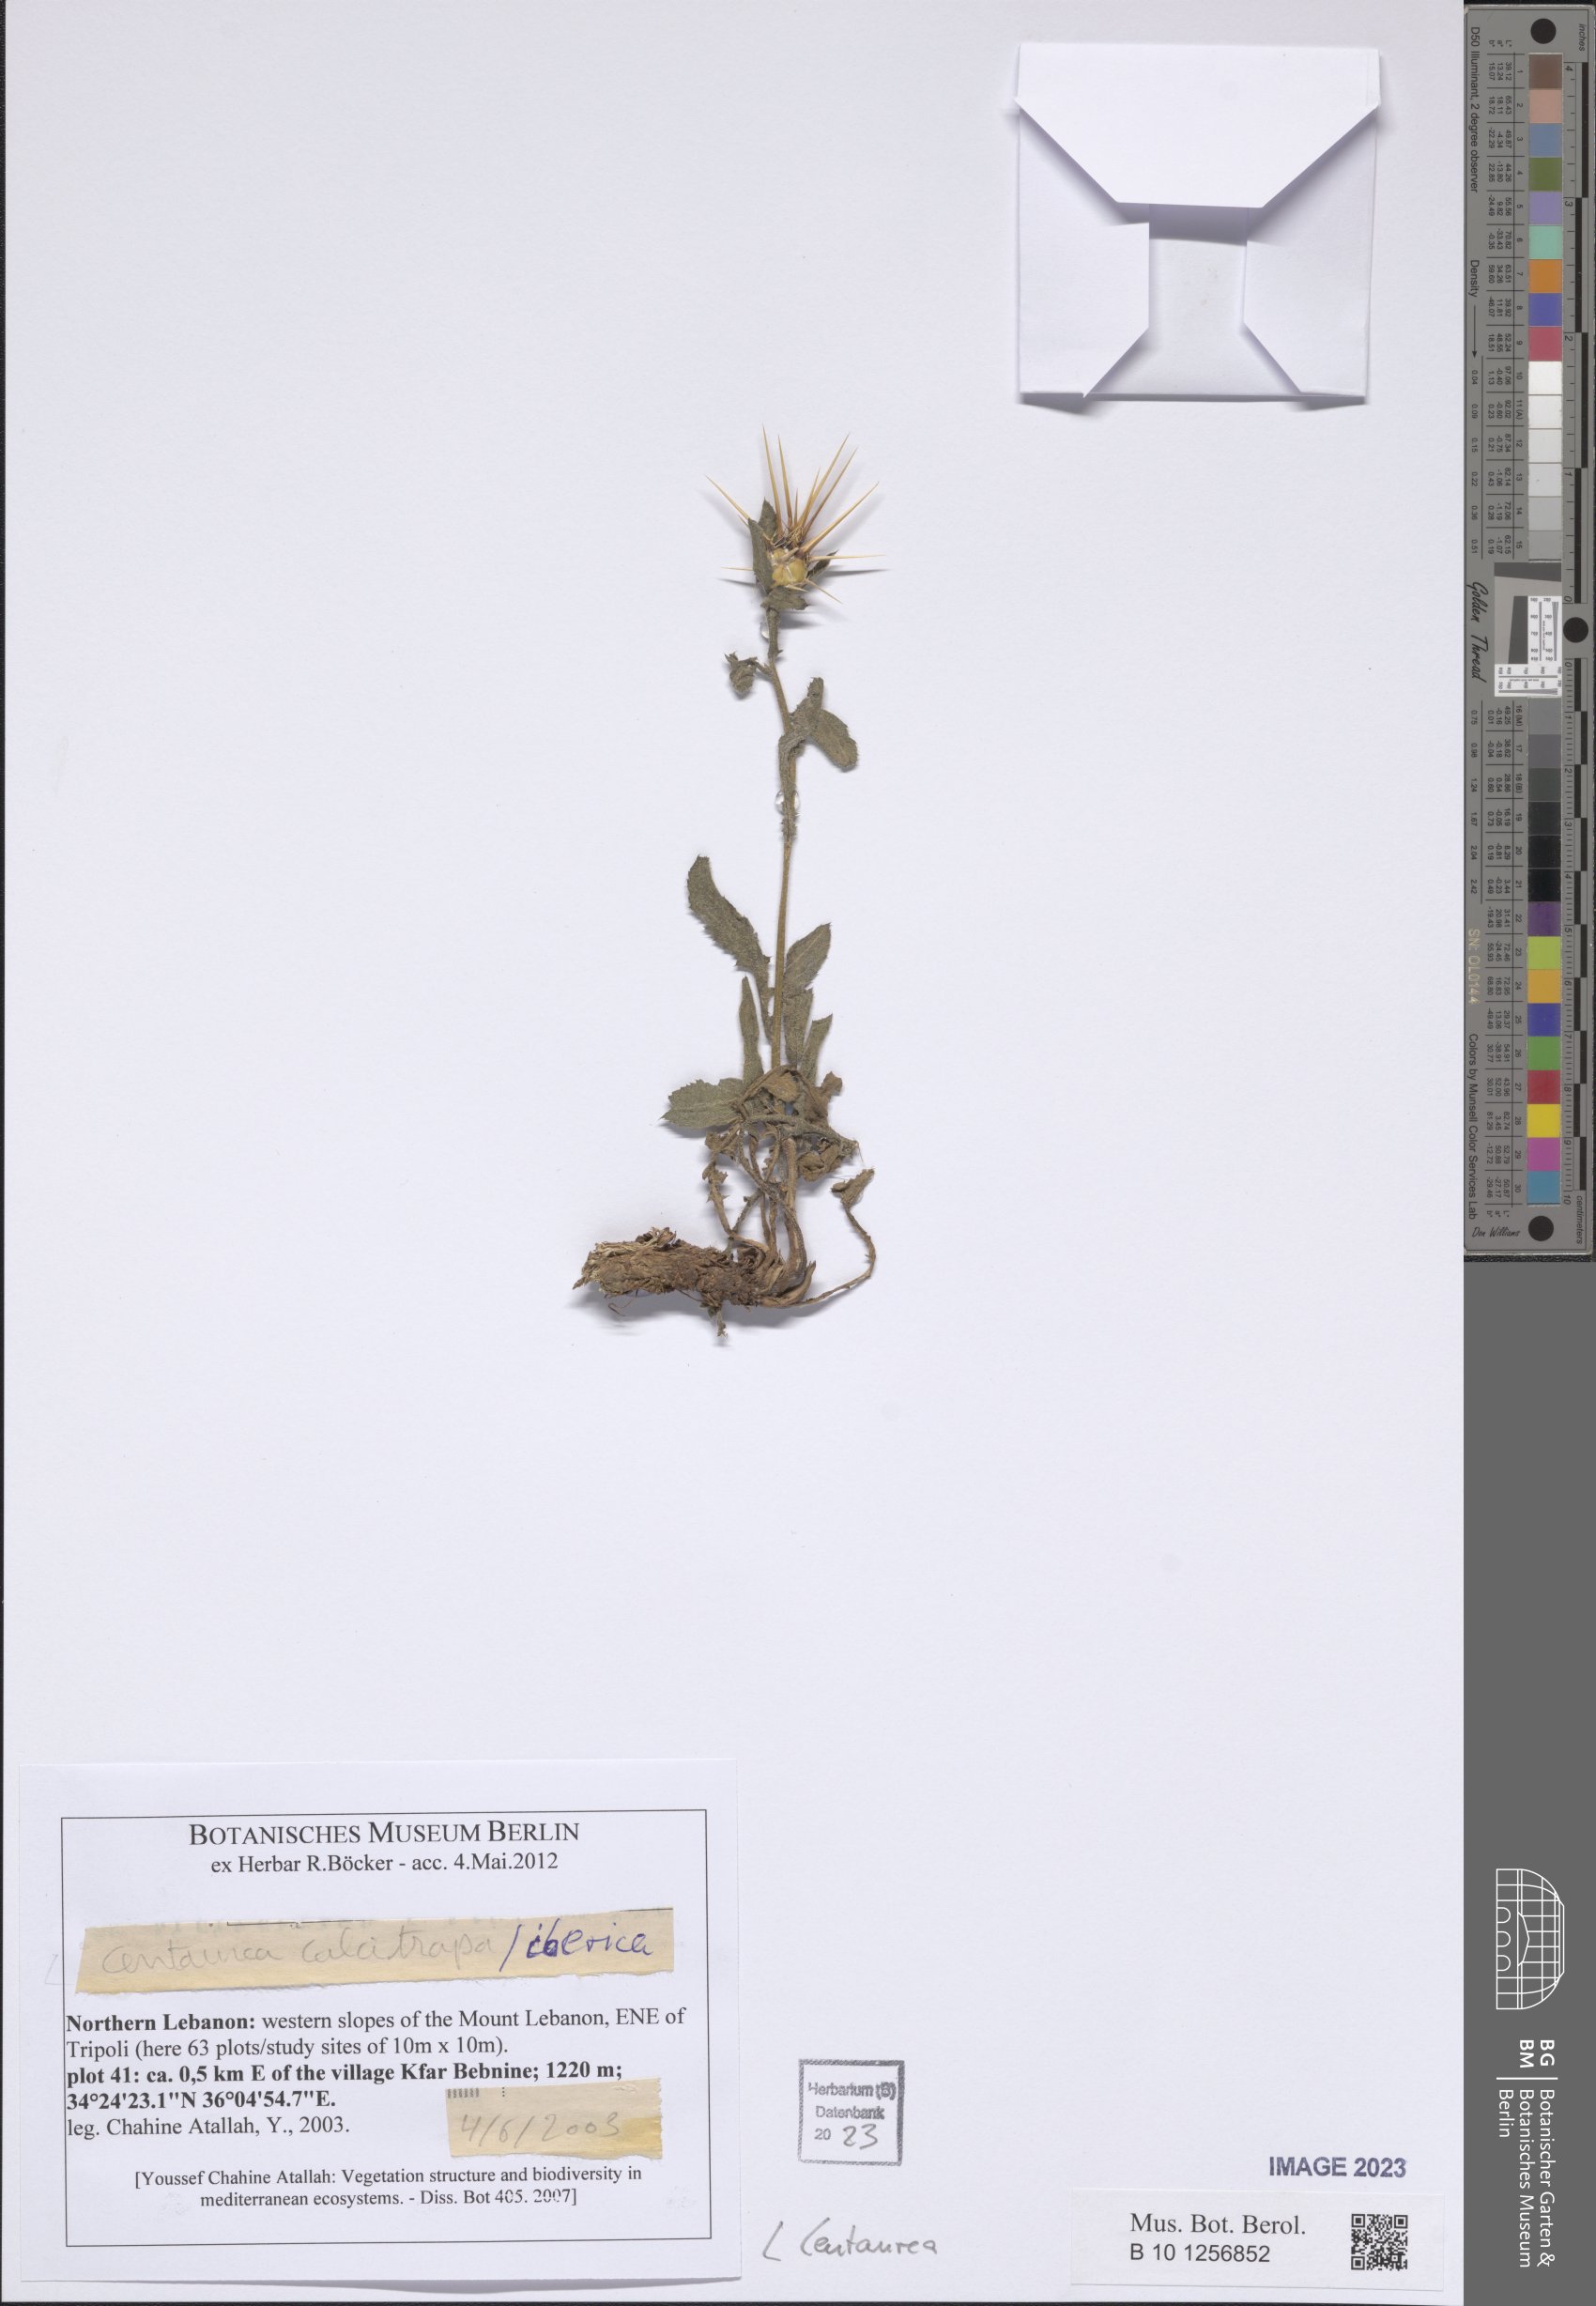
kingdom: Plantae
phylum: Tracheophyta
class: Magnoliopsida
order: Asterales
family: Asteraceae
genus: Centaurea
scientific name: Centaurea
